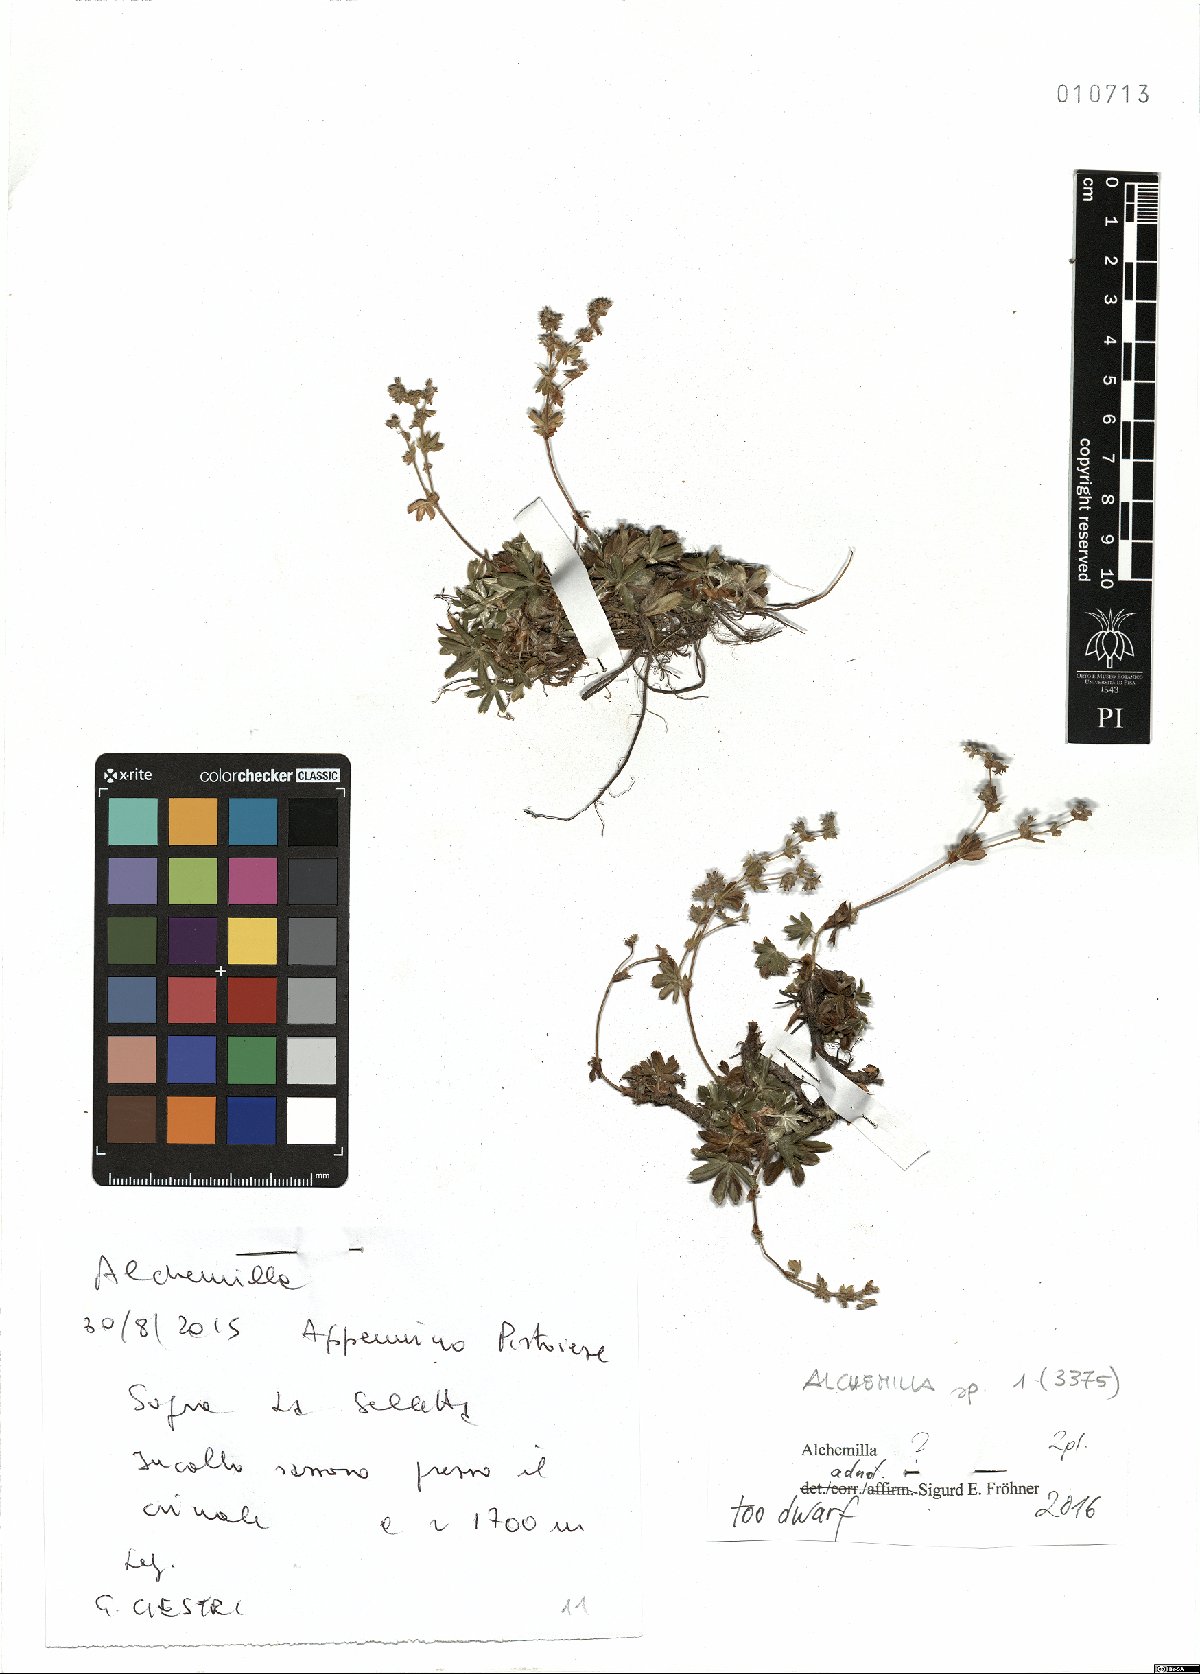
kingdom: Plantae
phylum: Tracheophyta
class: Magnoliopsida
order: Rosales
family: Rosaceae
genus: Alchemilla
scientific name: Alchemilla
